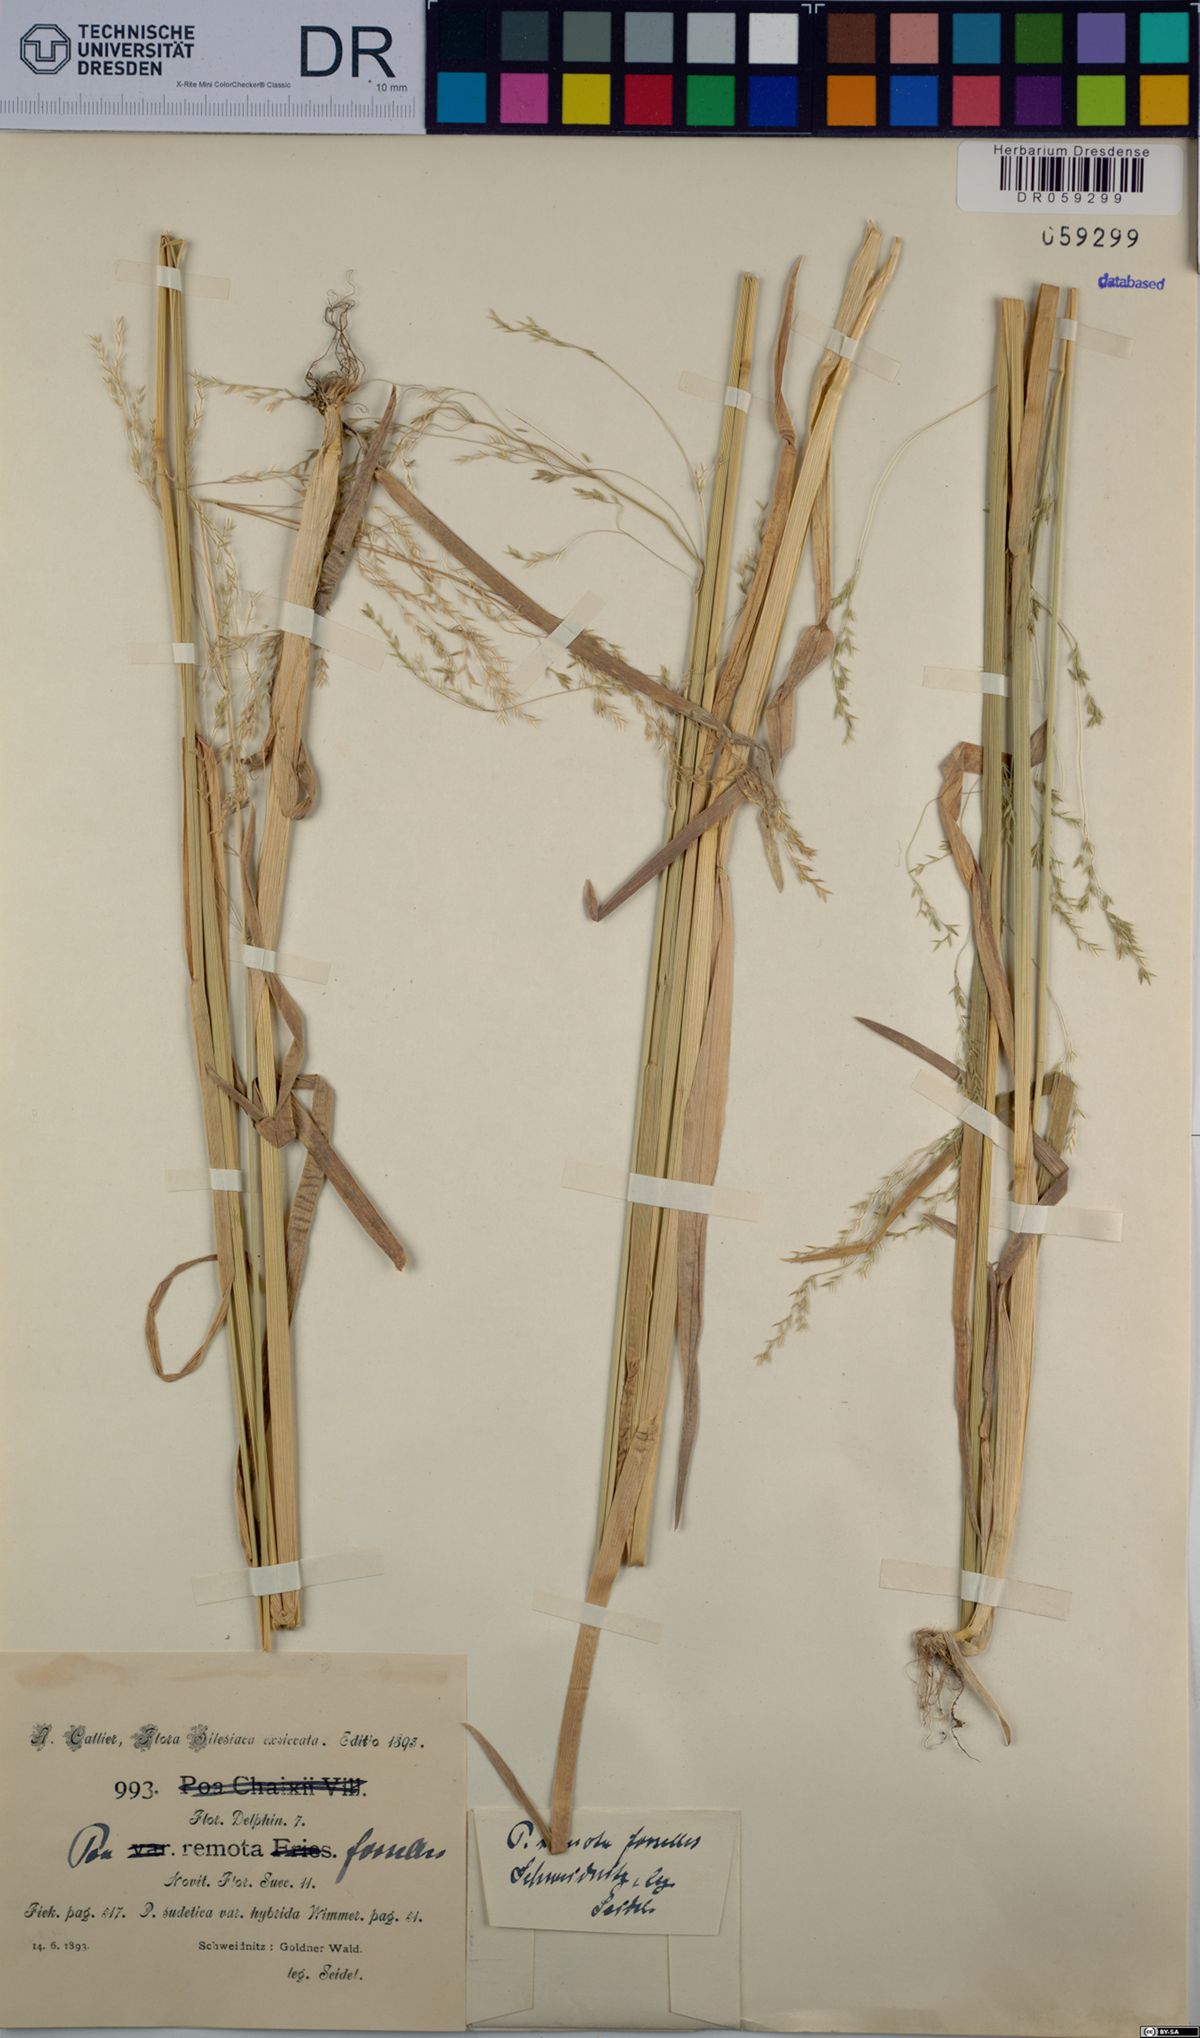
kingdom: Plantae
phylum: Tracheophyta
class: Liliopsida
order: Poales
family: Poaceae
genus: Poa
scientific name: Poa remota
